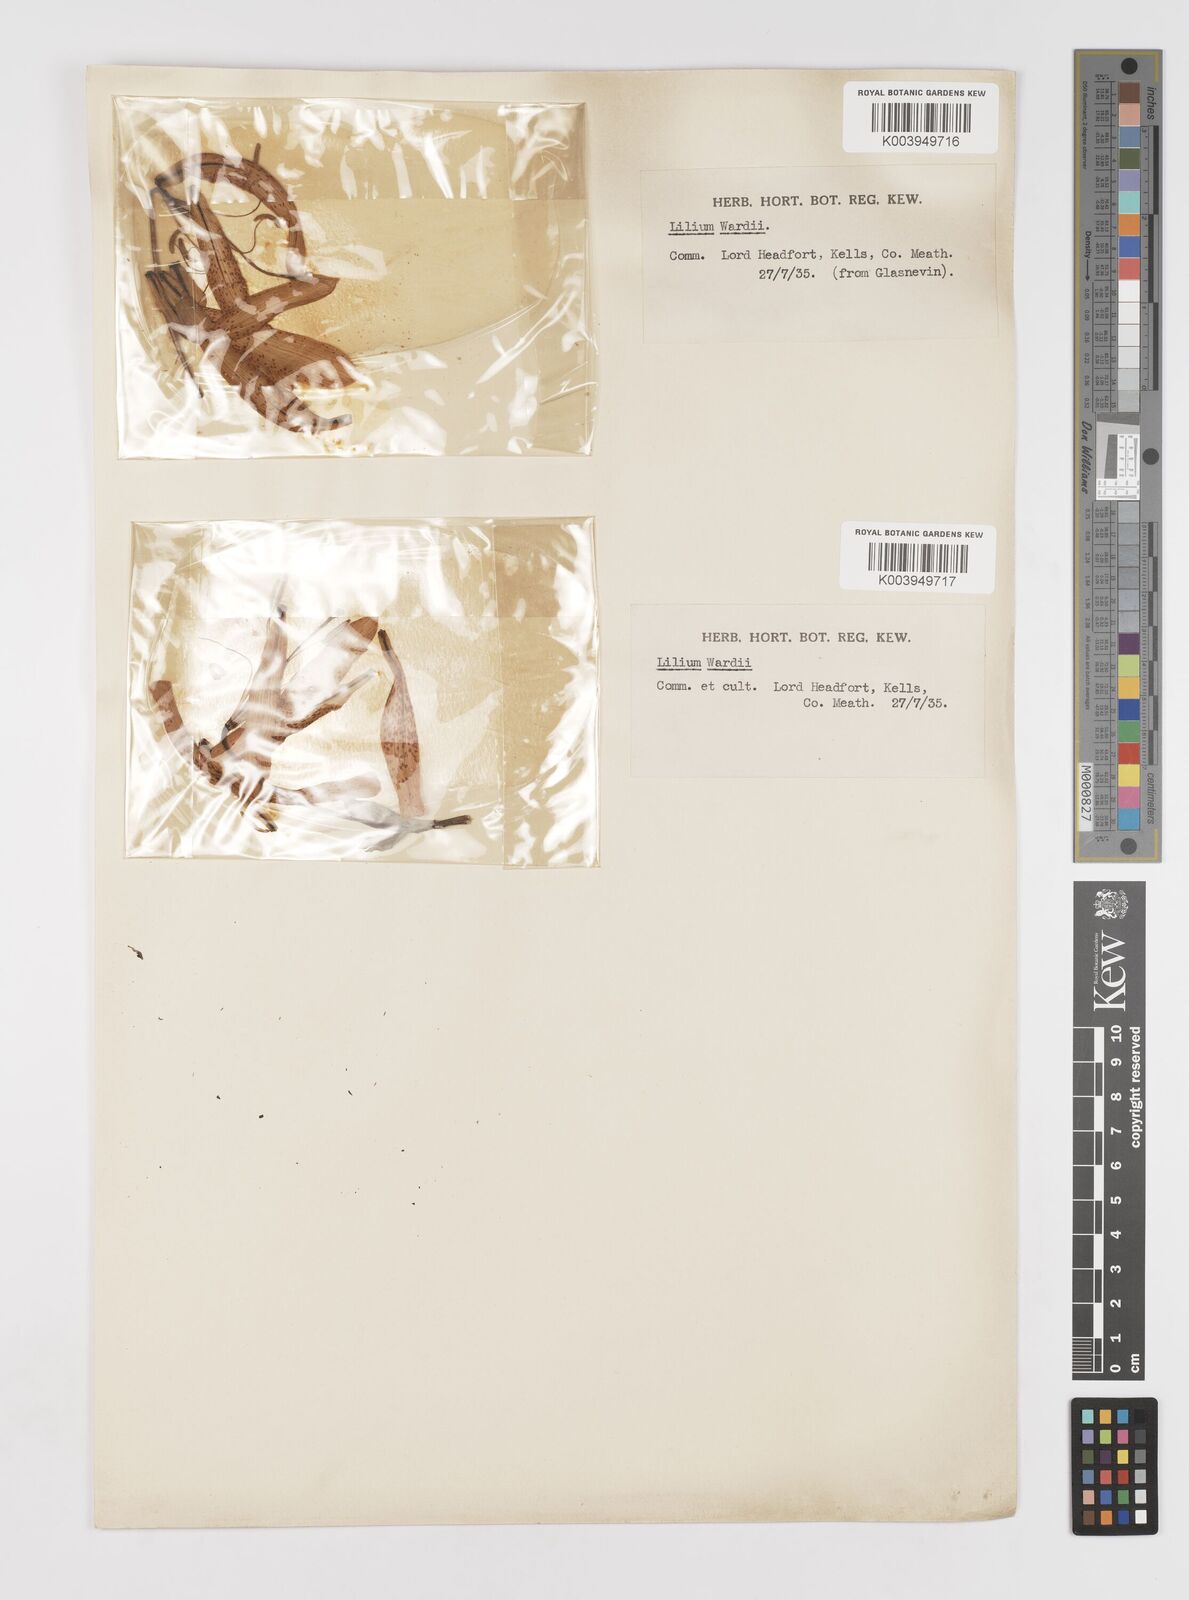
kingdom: Plantae
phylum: Tracheophyta
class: Liliopsida
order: Liliales
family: Liliaceae
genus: Lilium
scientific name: Lilium wardii
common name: Ward's lily
